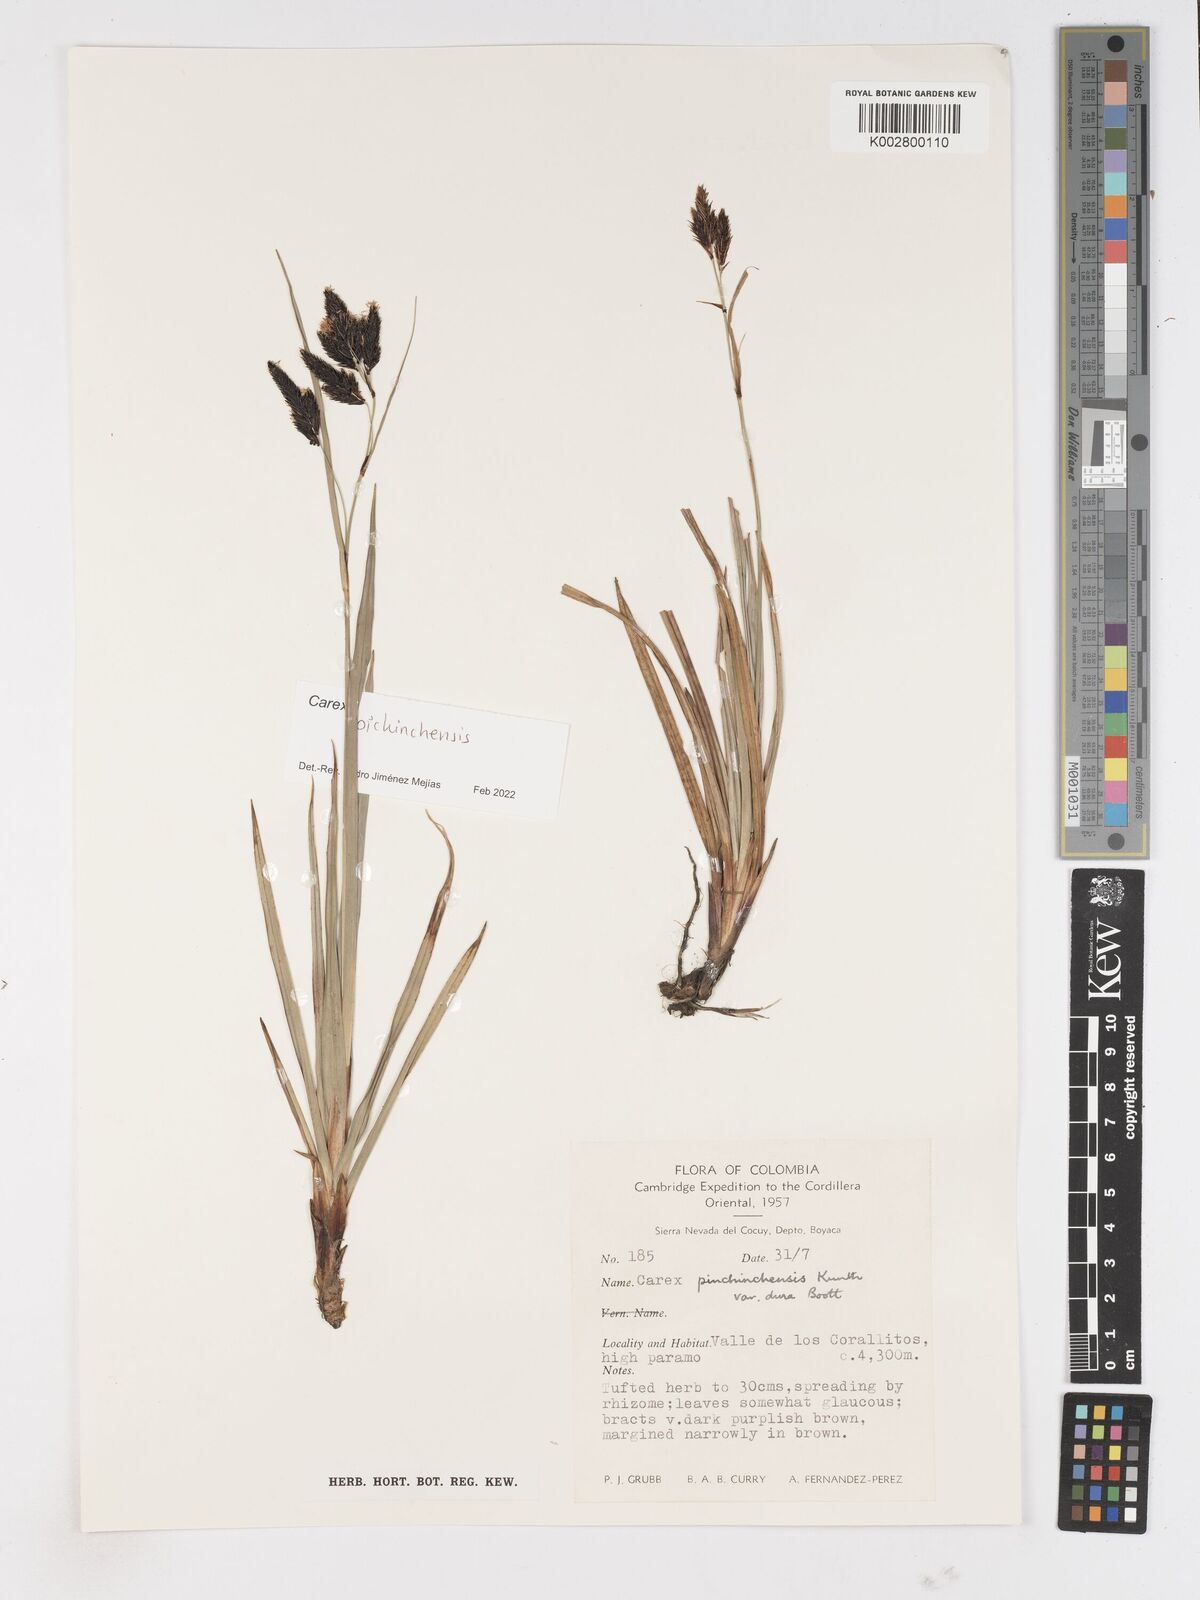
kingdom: Plantae
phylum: Tracheophyta
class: Liliopsida
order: Poales
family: Cyperaceae
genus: Carex
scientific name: Carex pichinchensis
